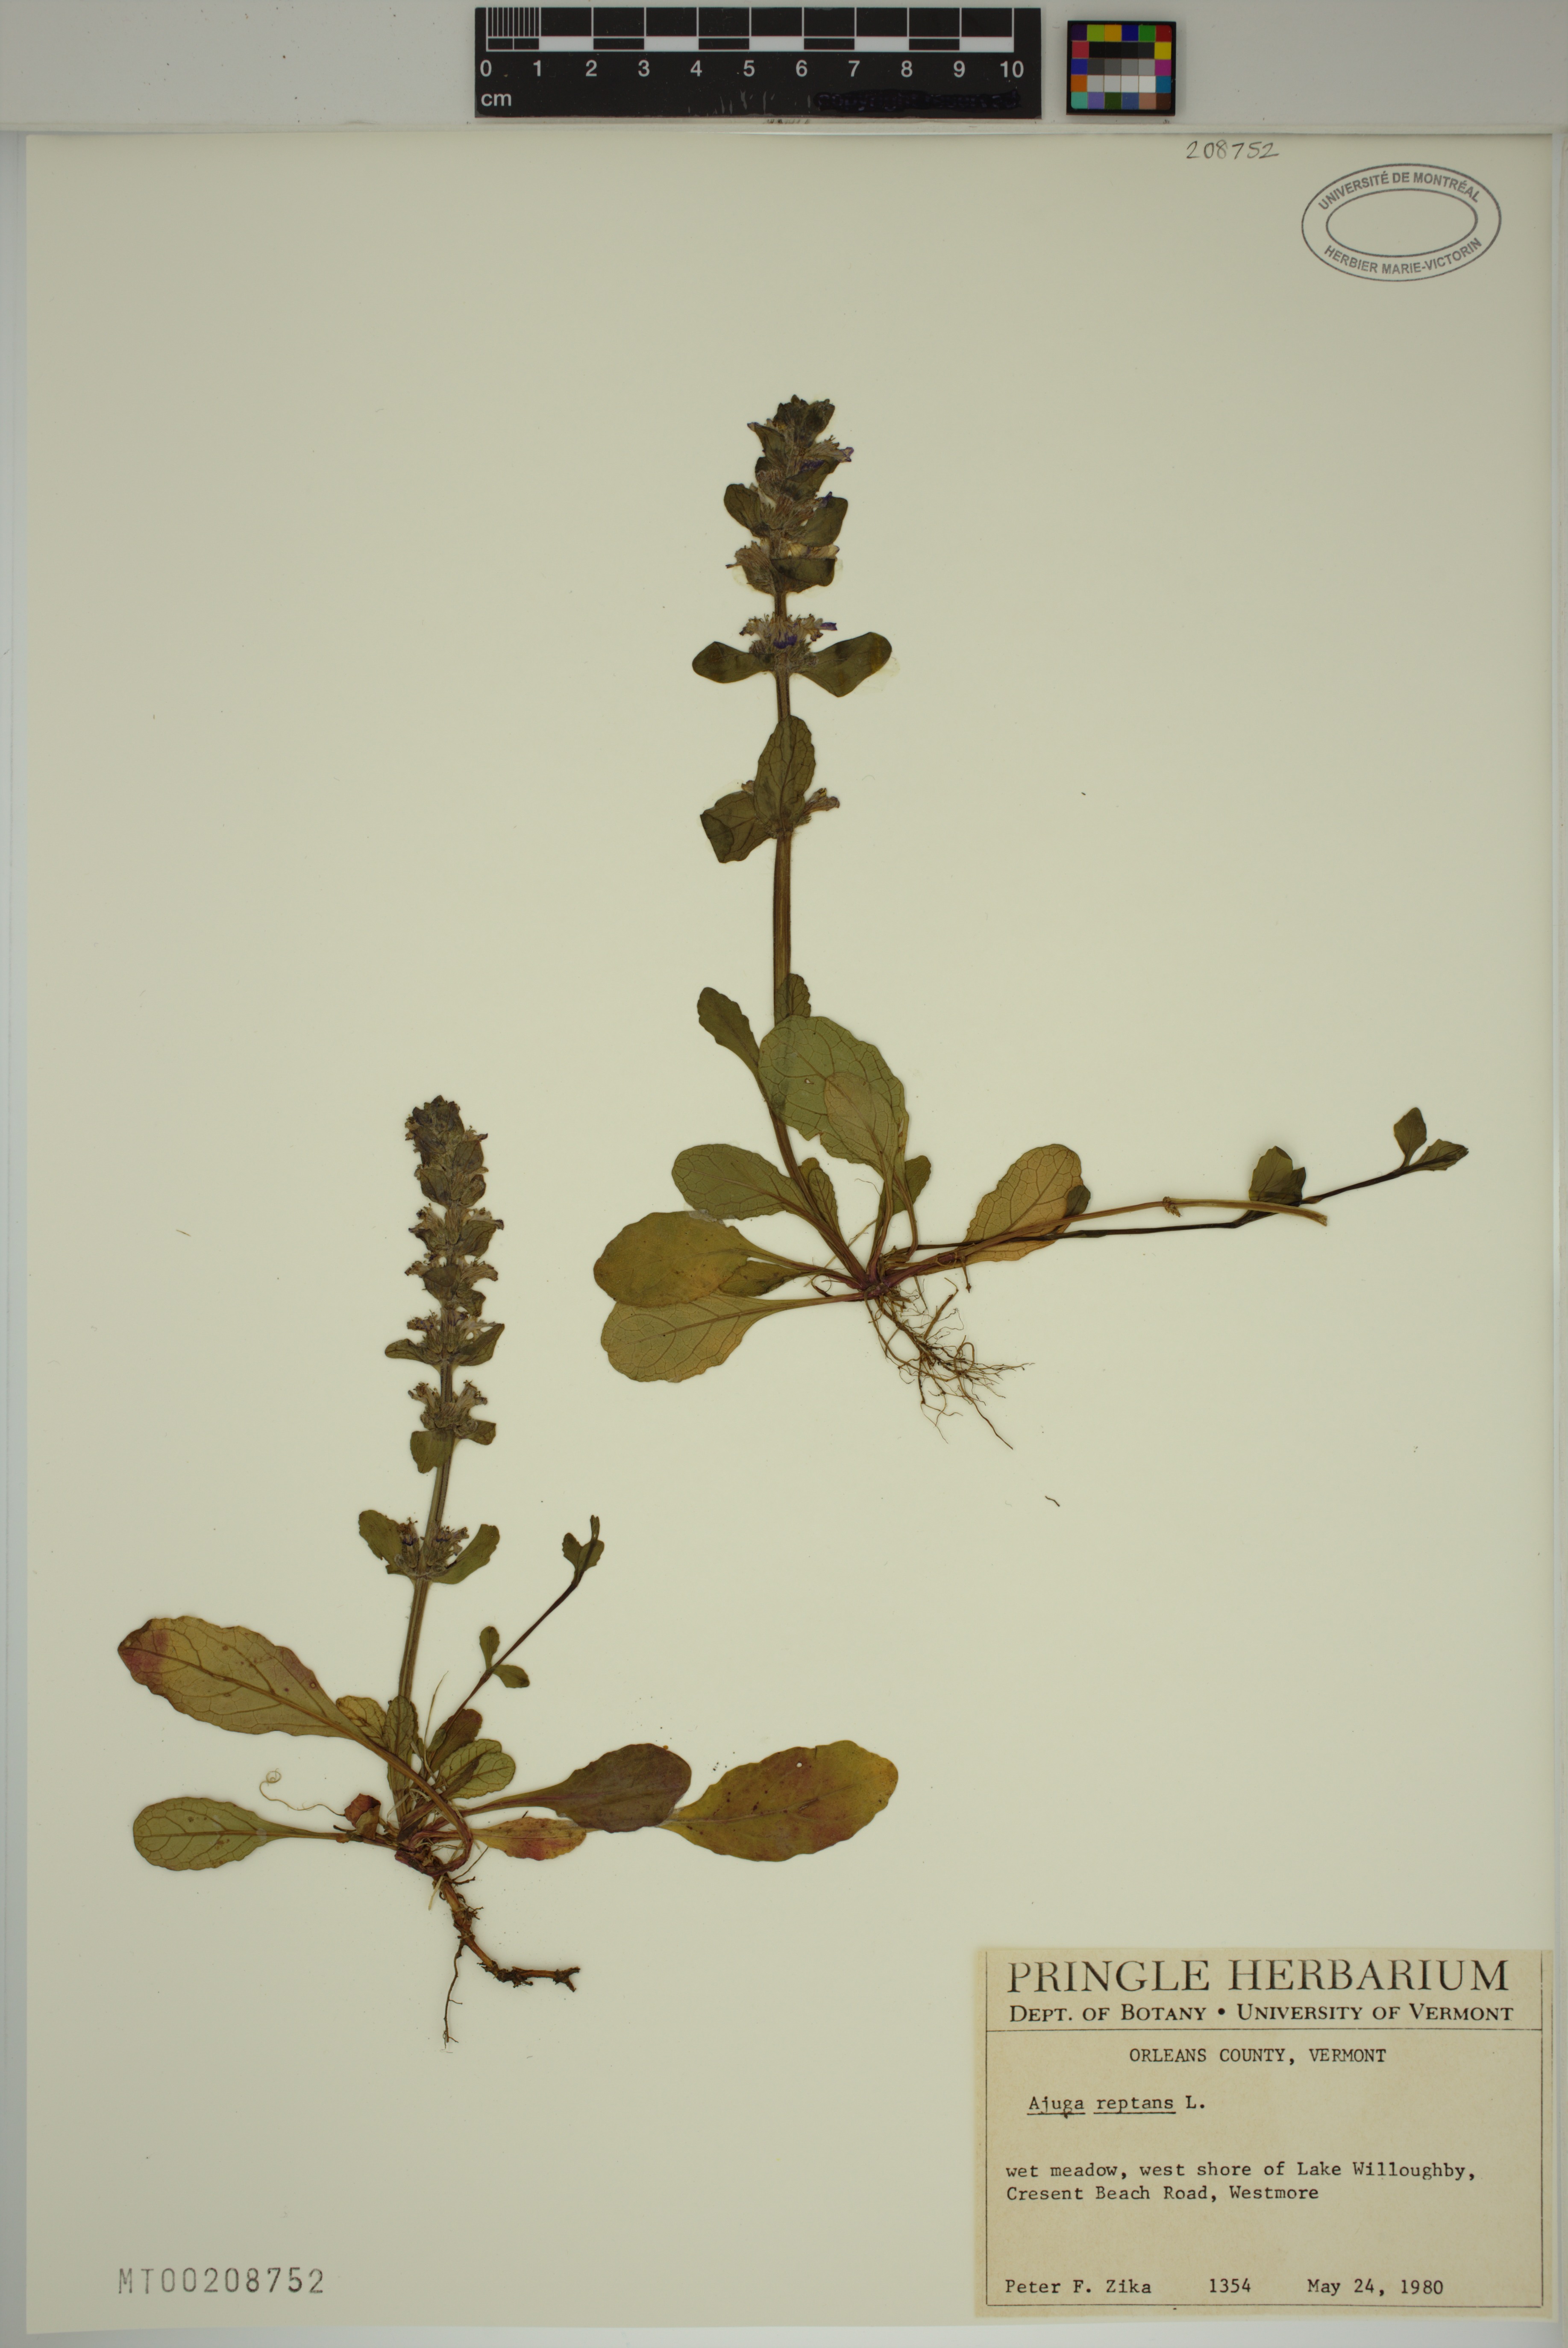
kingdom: Plantae
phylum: Tracheophyta
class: Magnoliopsida
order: Lamiales
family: Lamiaceae
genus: Ajuga
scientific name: Ajuga reptans
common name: Bugle
